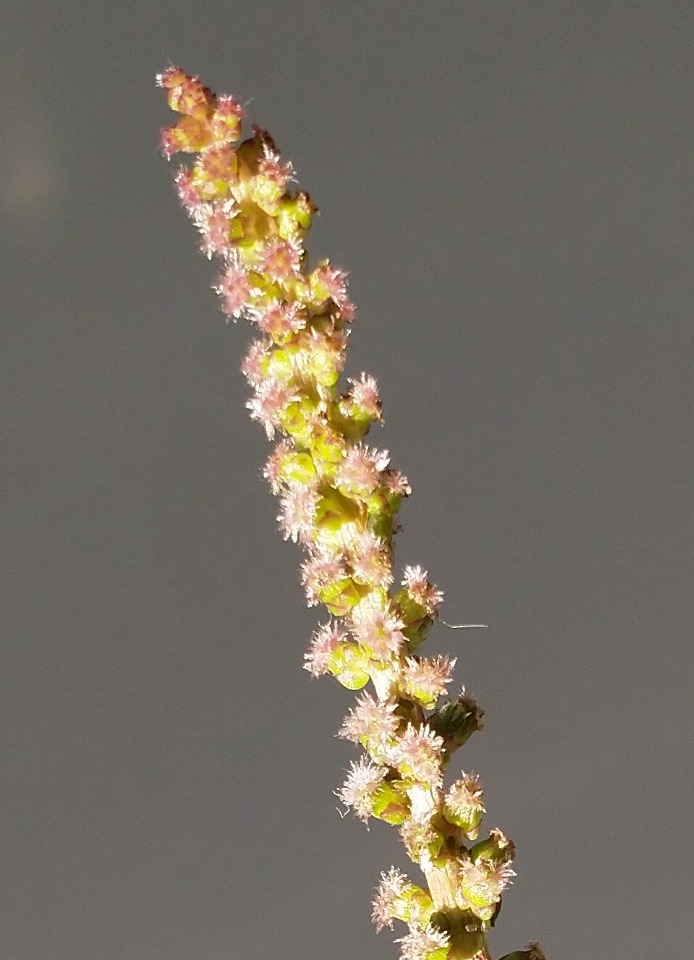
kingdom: Plantae
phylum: Tracheophyta
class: Liliopsida
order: Alismatales
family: Juncaginaceae
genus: Triglochin
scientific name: Triglochin maritima
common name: Strand-trehage
